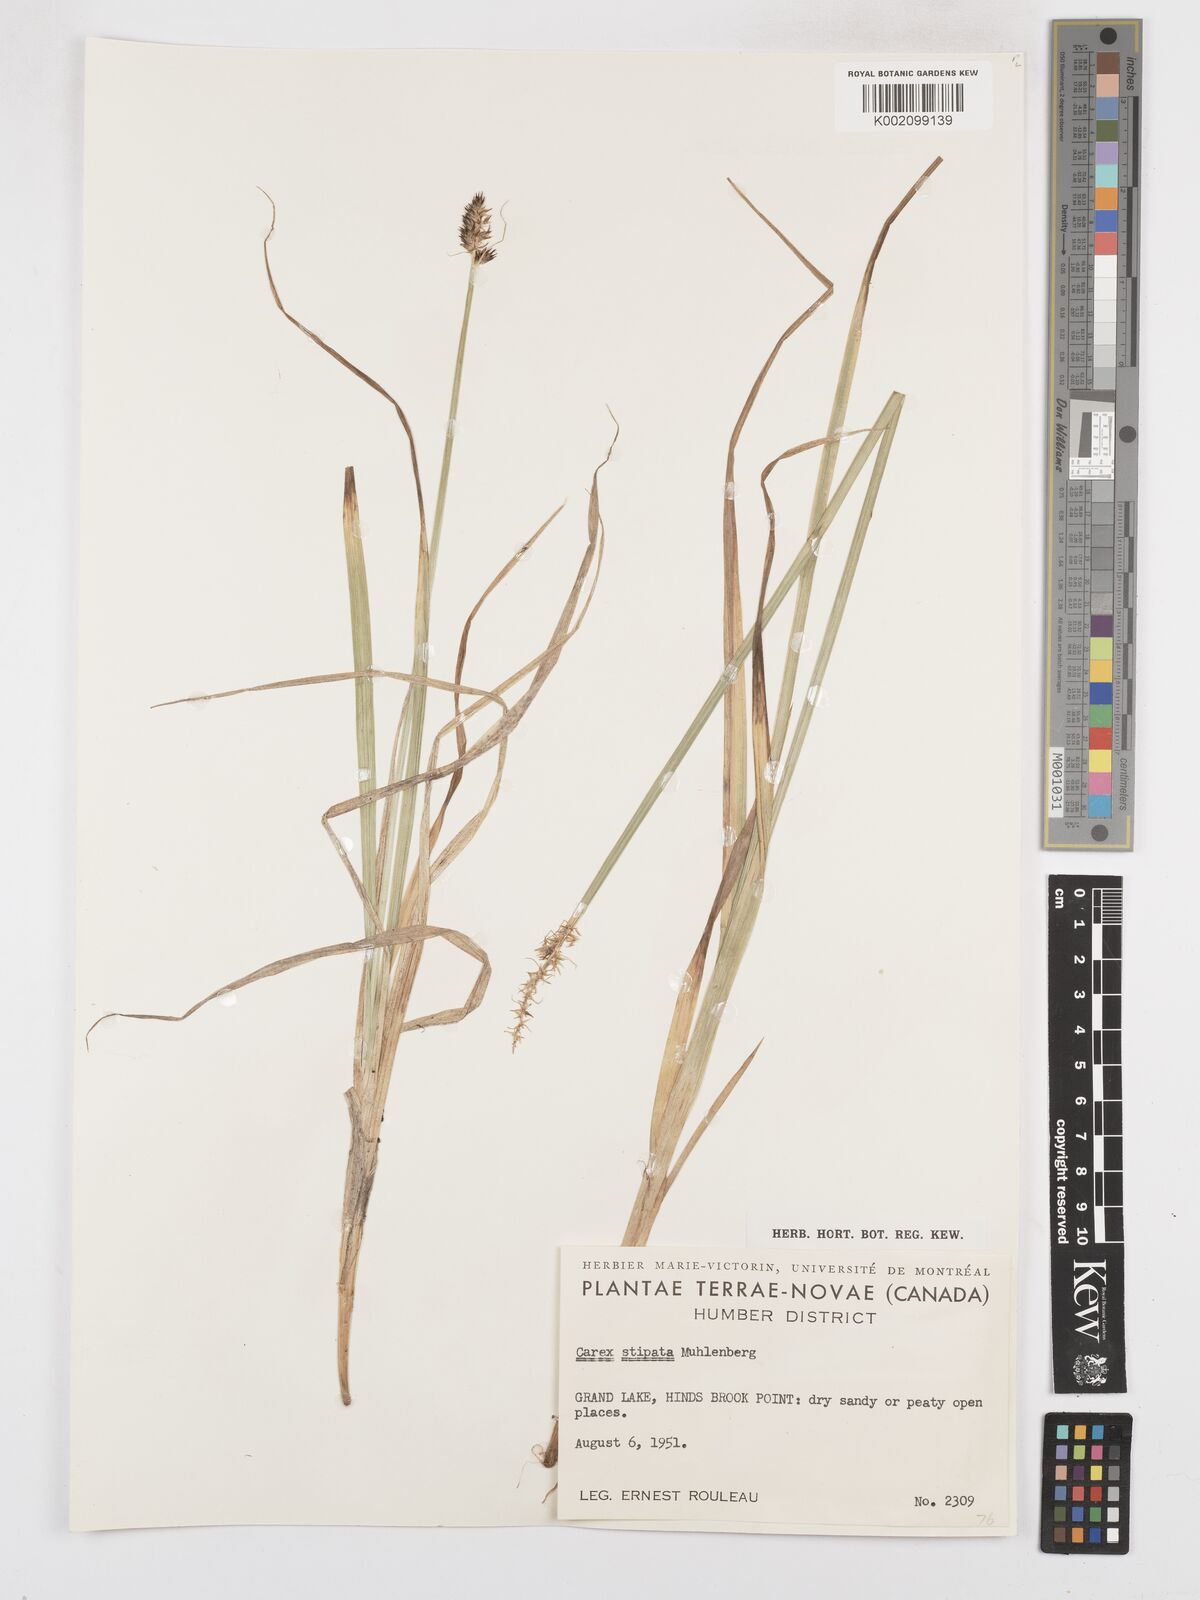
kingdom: Plantae
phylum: Tracheophyta
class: Liliopsida
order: Poales
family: Cyperaceae
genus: Carex
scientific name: Carex stipata
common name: Awl-fruited sedge
